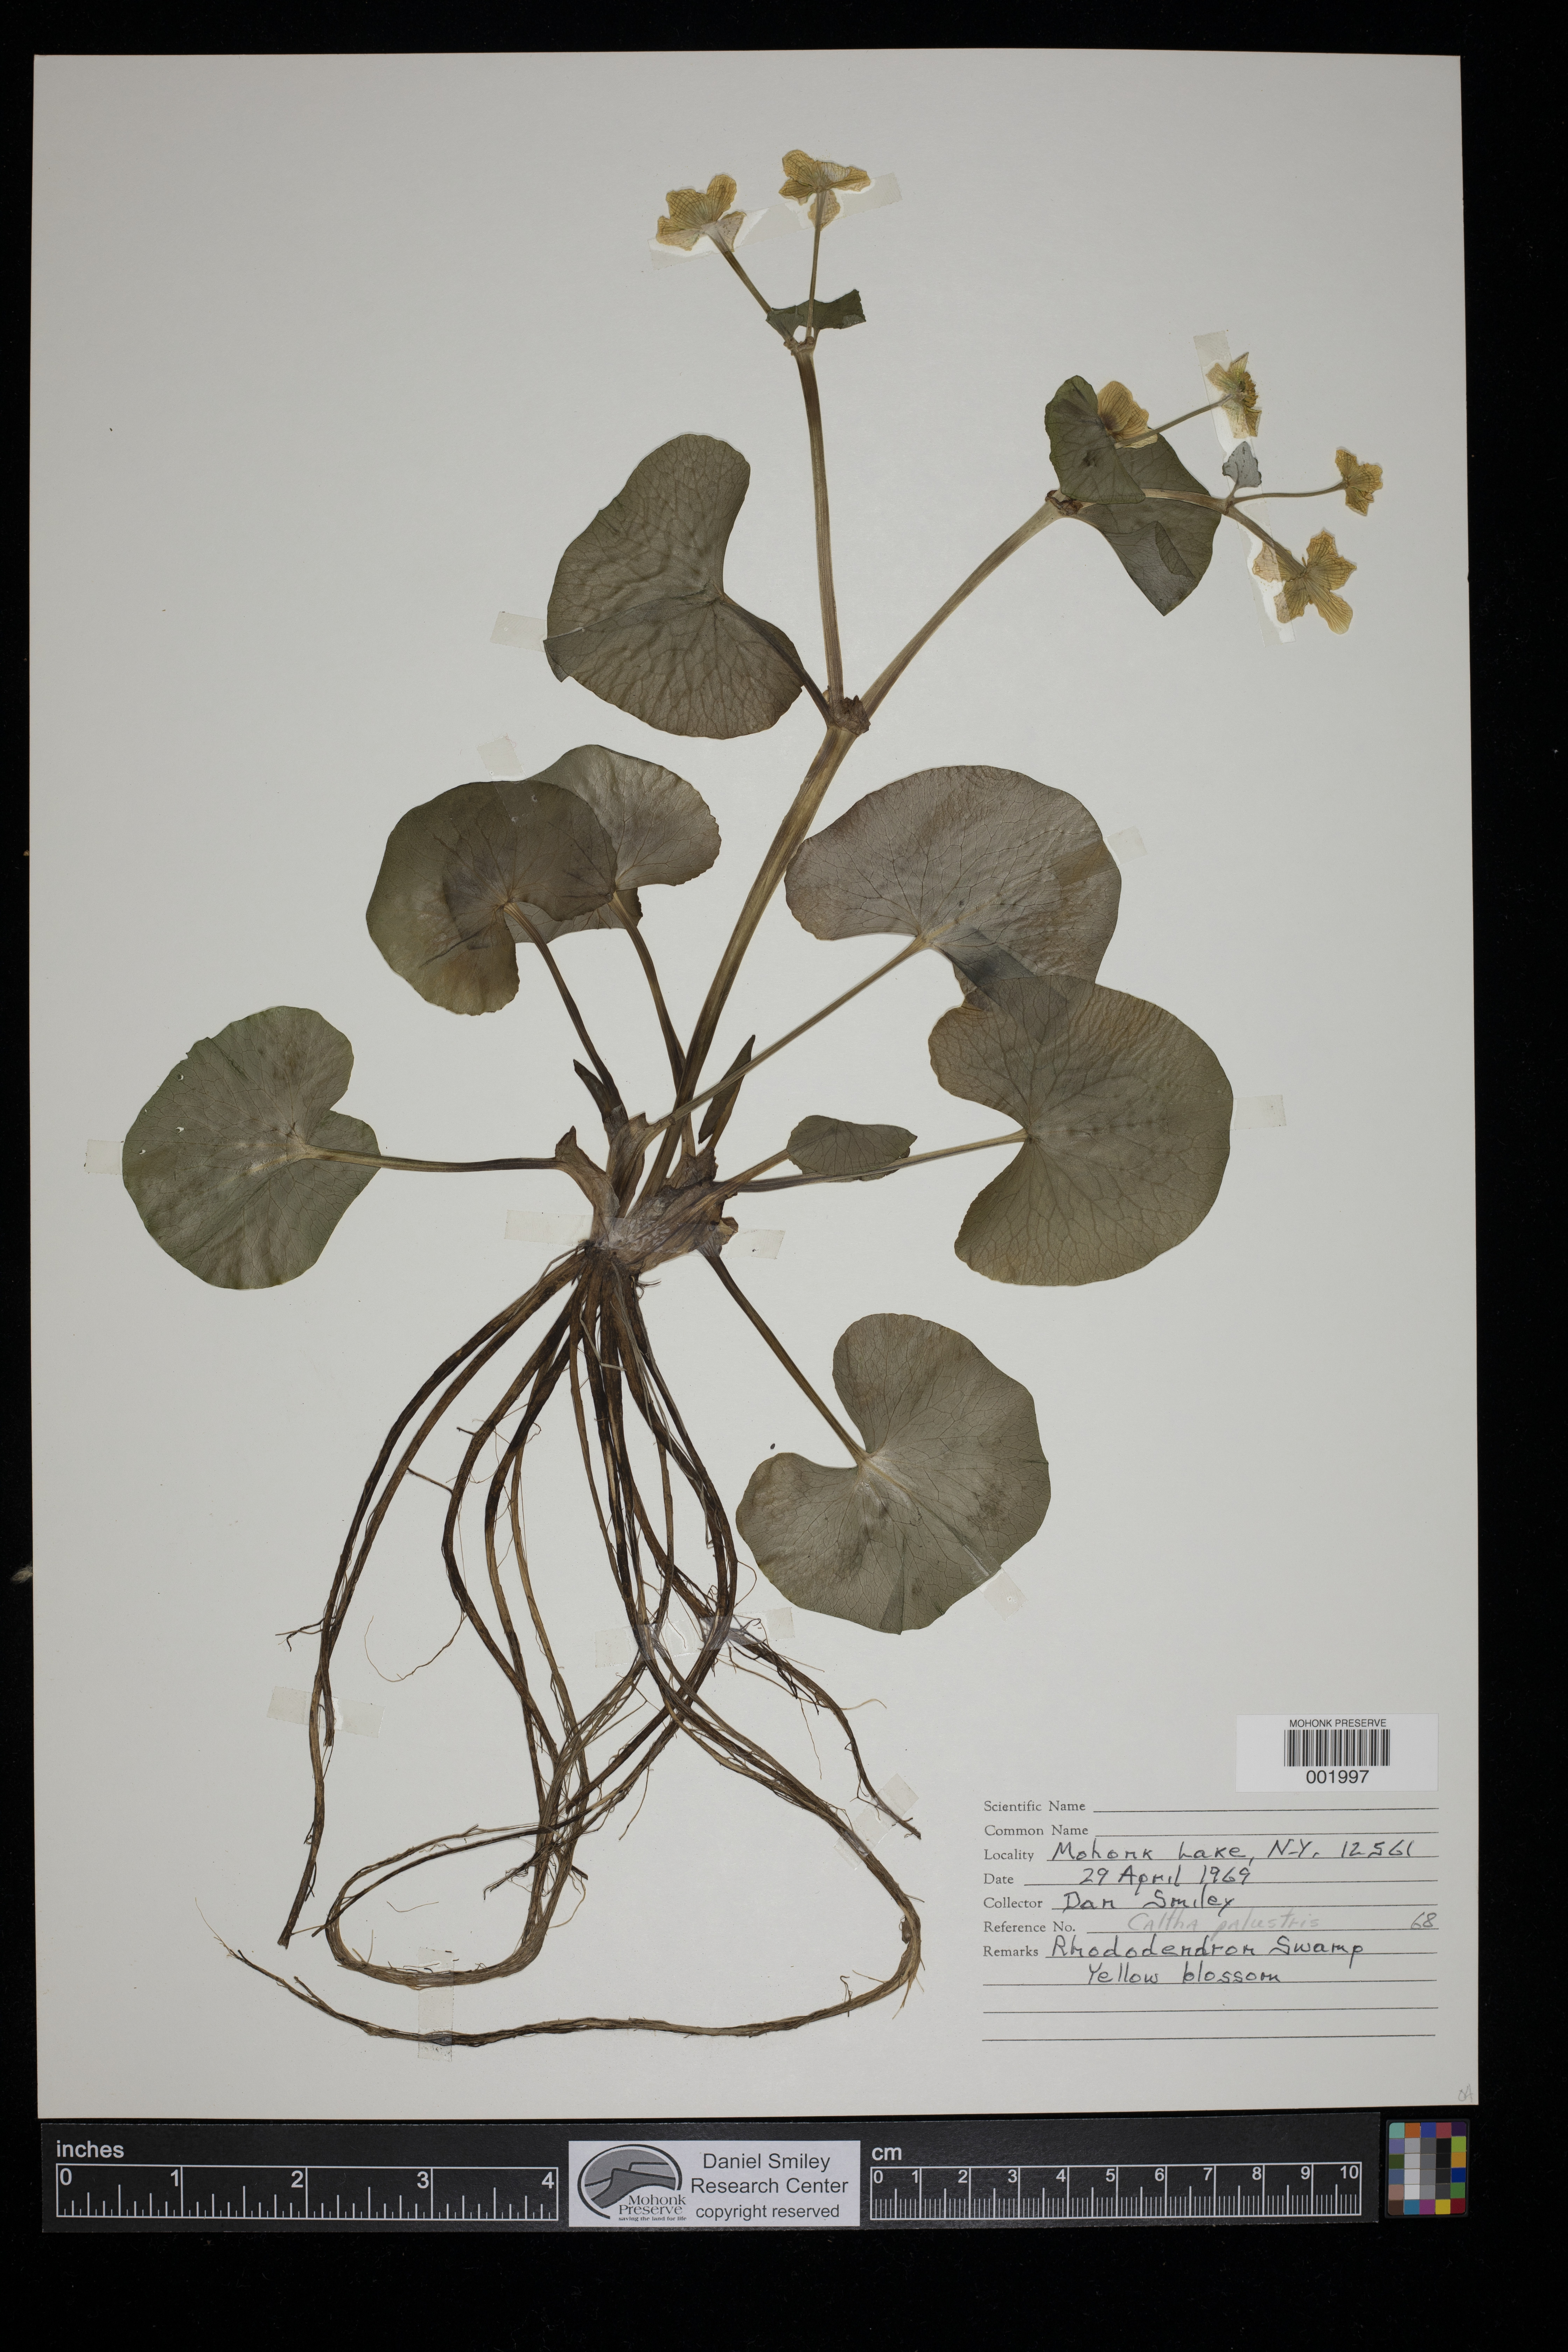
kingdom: Plantae
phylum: Tracheophyta
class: Magnoliopsida
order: Ranunculales
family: Ranunculaceae
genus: Caltha
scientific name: Caltha palustris
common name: Marsh marigold
